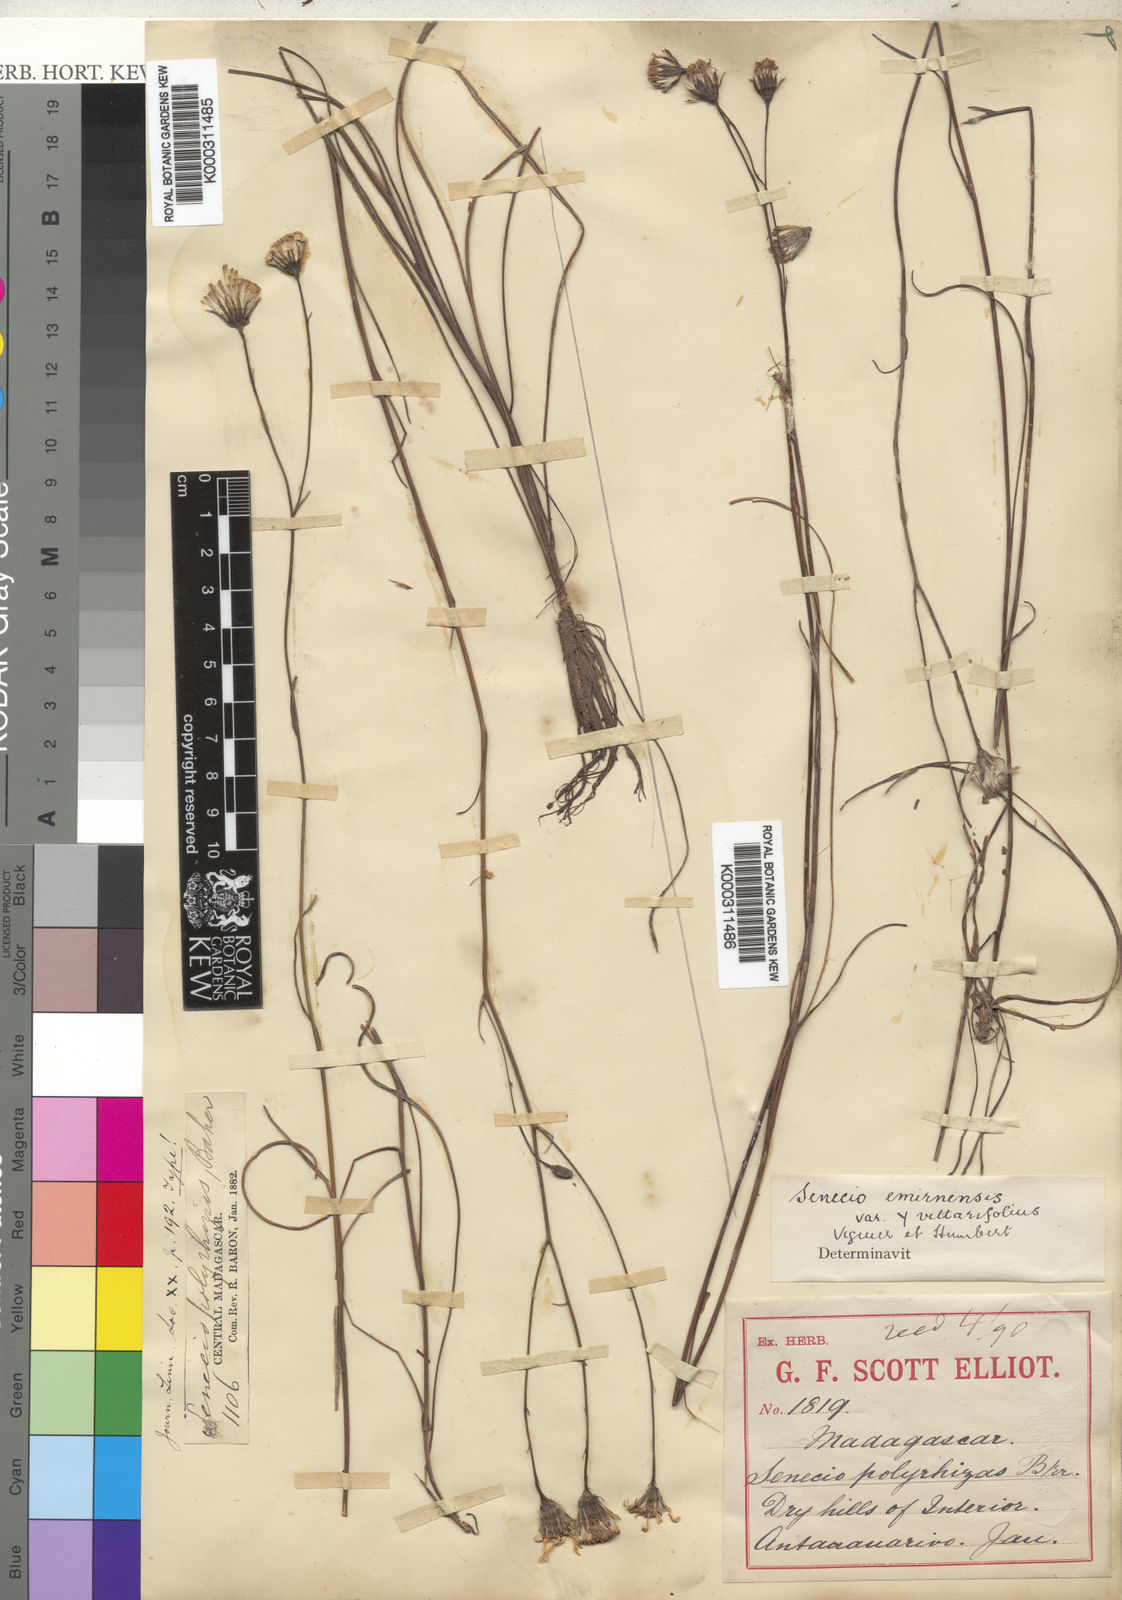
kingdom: Plantae
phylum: Tracheophyta
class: Magnoliopsida
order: Asterales
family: Asteraceae
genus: Senecio
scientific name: Senecio emirnensis
